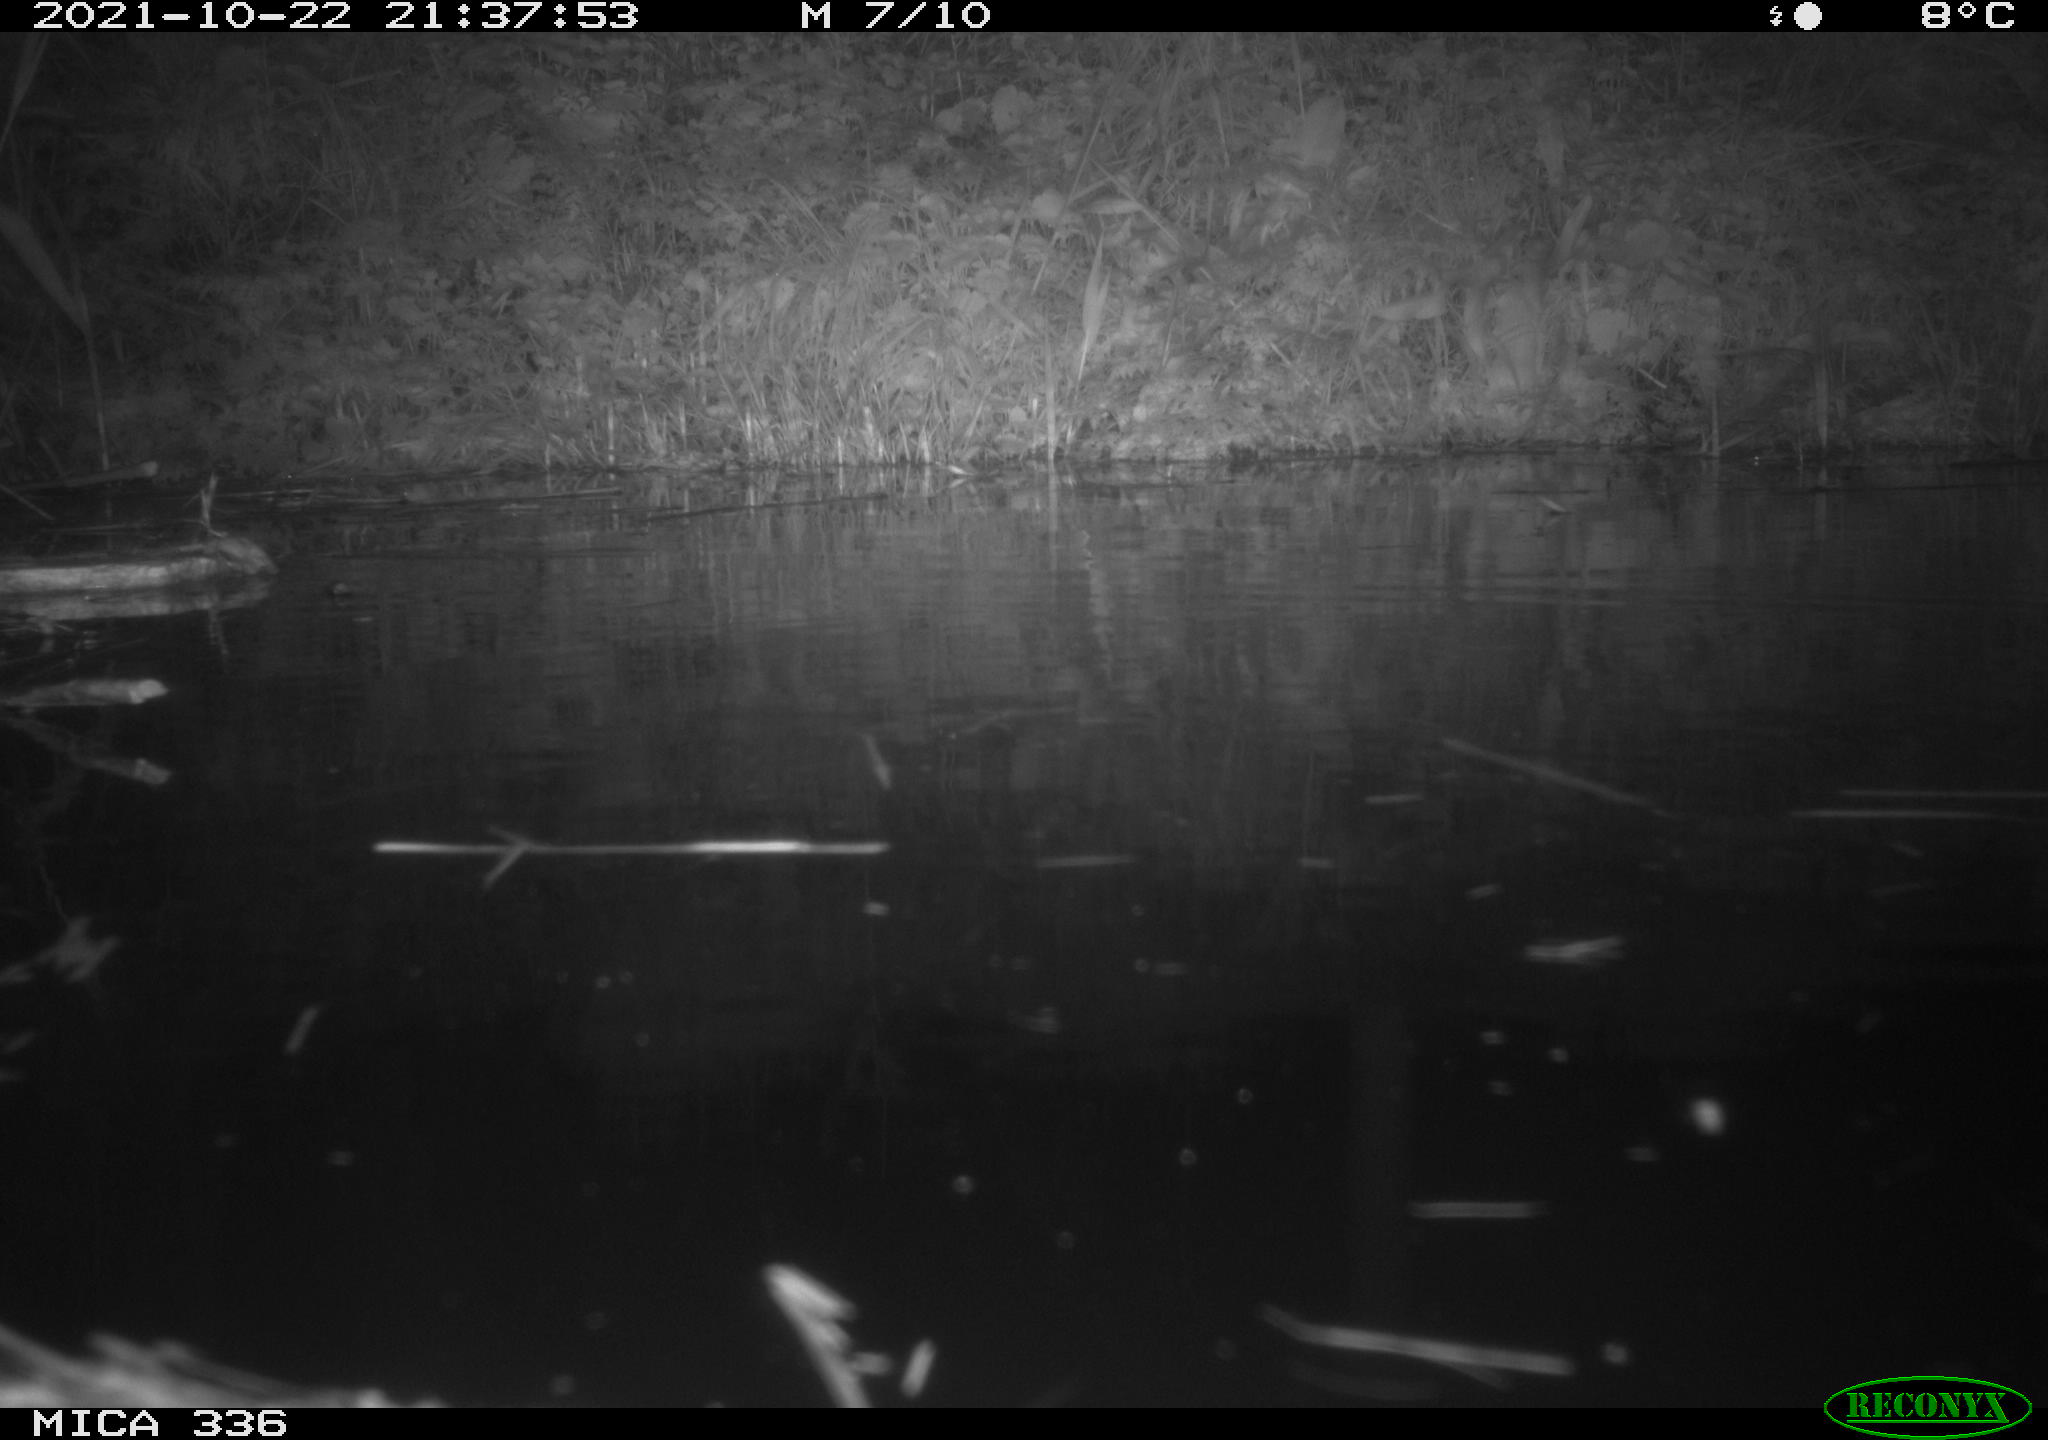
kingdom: Animalia
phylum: Chordata
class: Mammalia
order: Rodentia
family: Muridae
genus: Rattus
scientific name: Rattus norvegicus
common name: Brown rat
